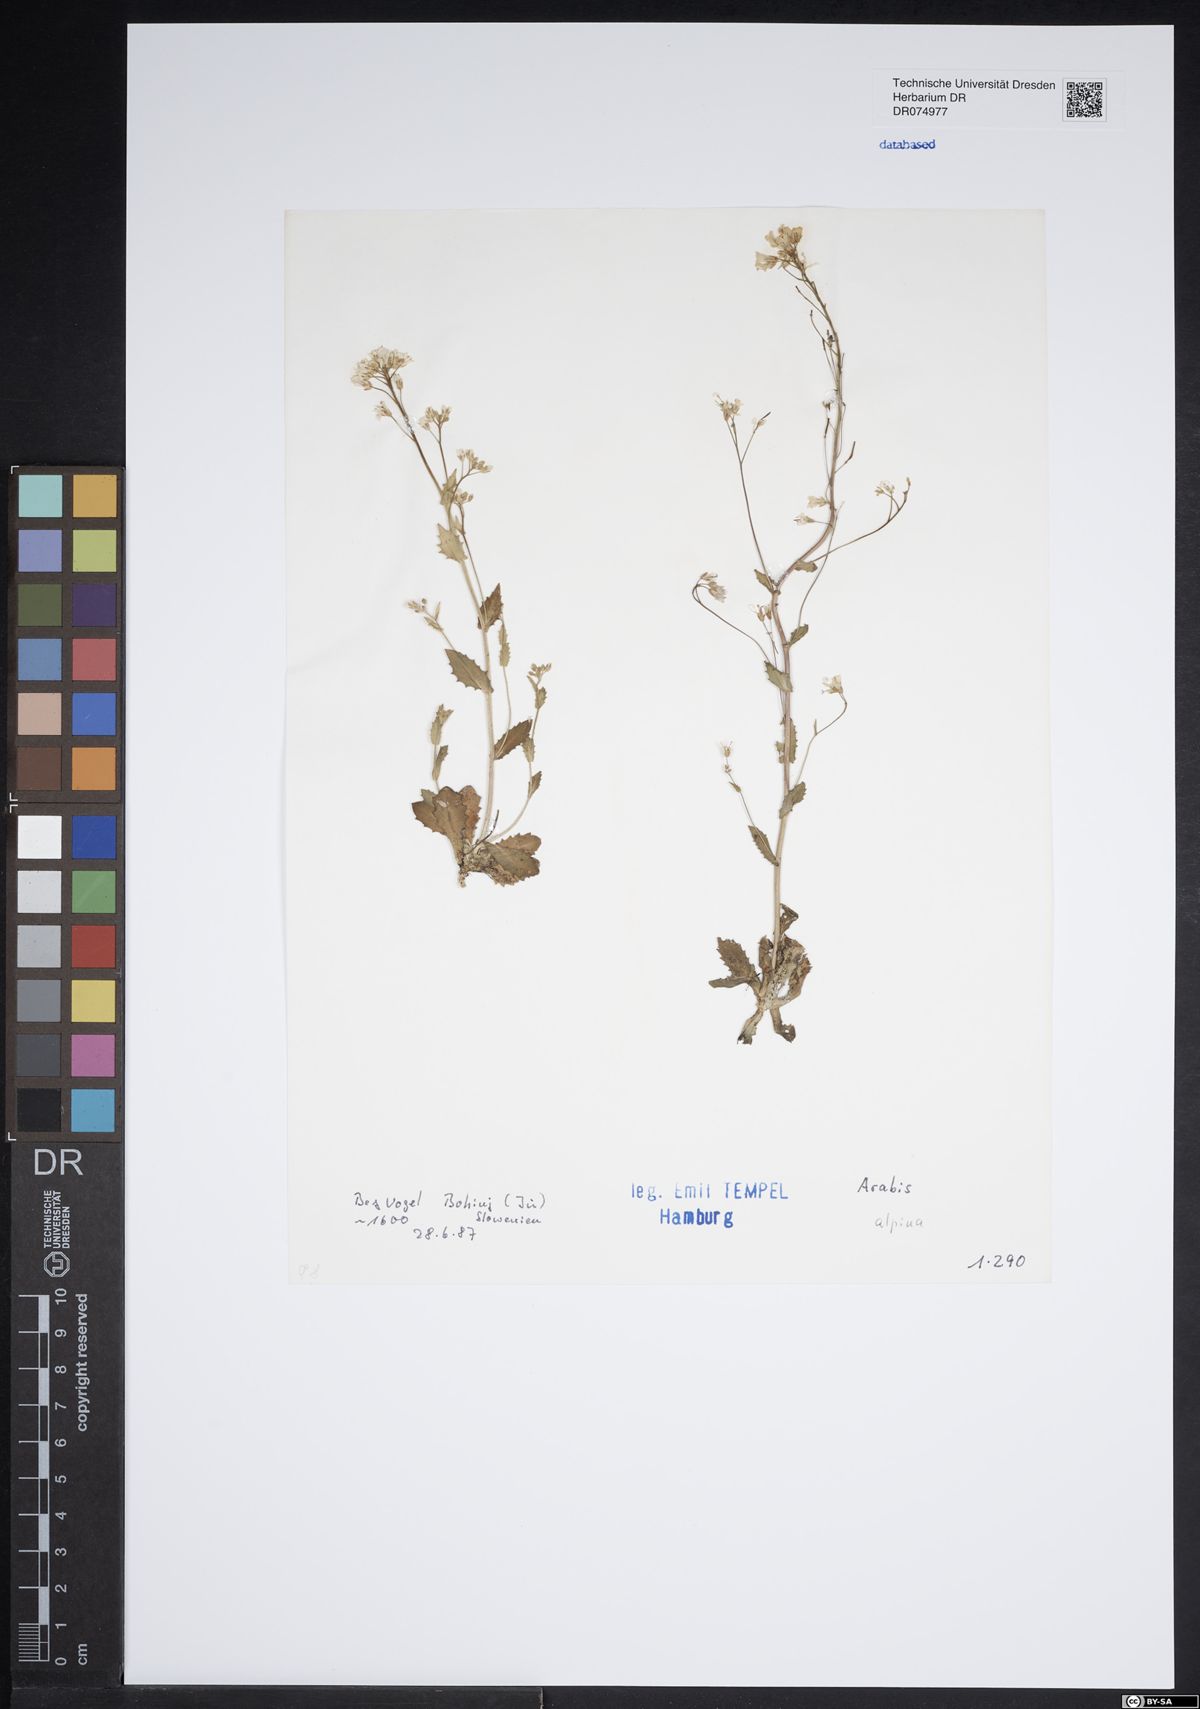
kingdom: Plantae
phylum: Tracheophyta
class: Magnoliopsida
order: Brassicales
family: Brassicaceae
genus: Arabis
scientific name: Arabis alpina
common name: Alpine rock-cress
